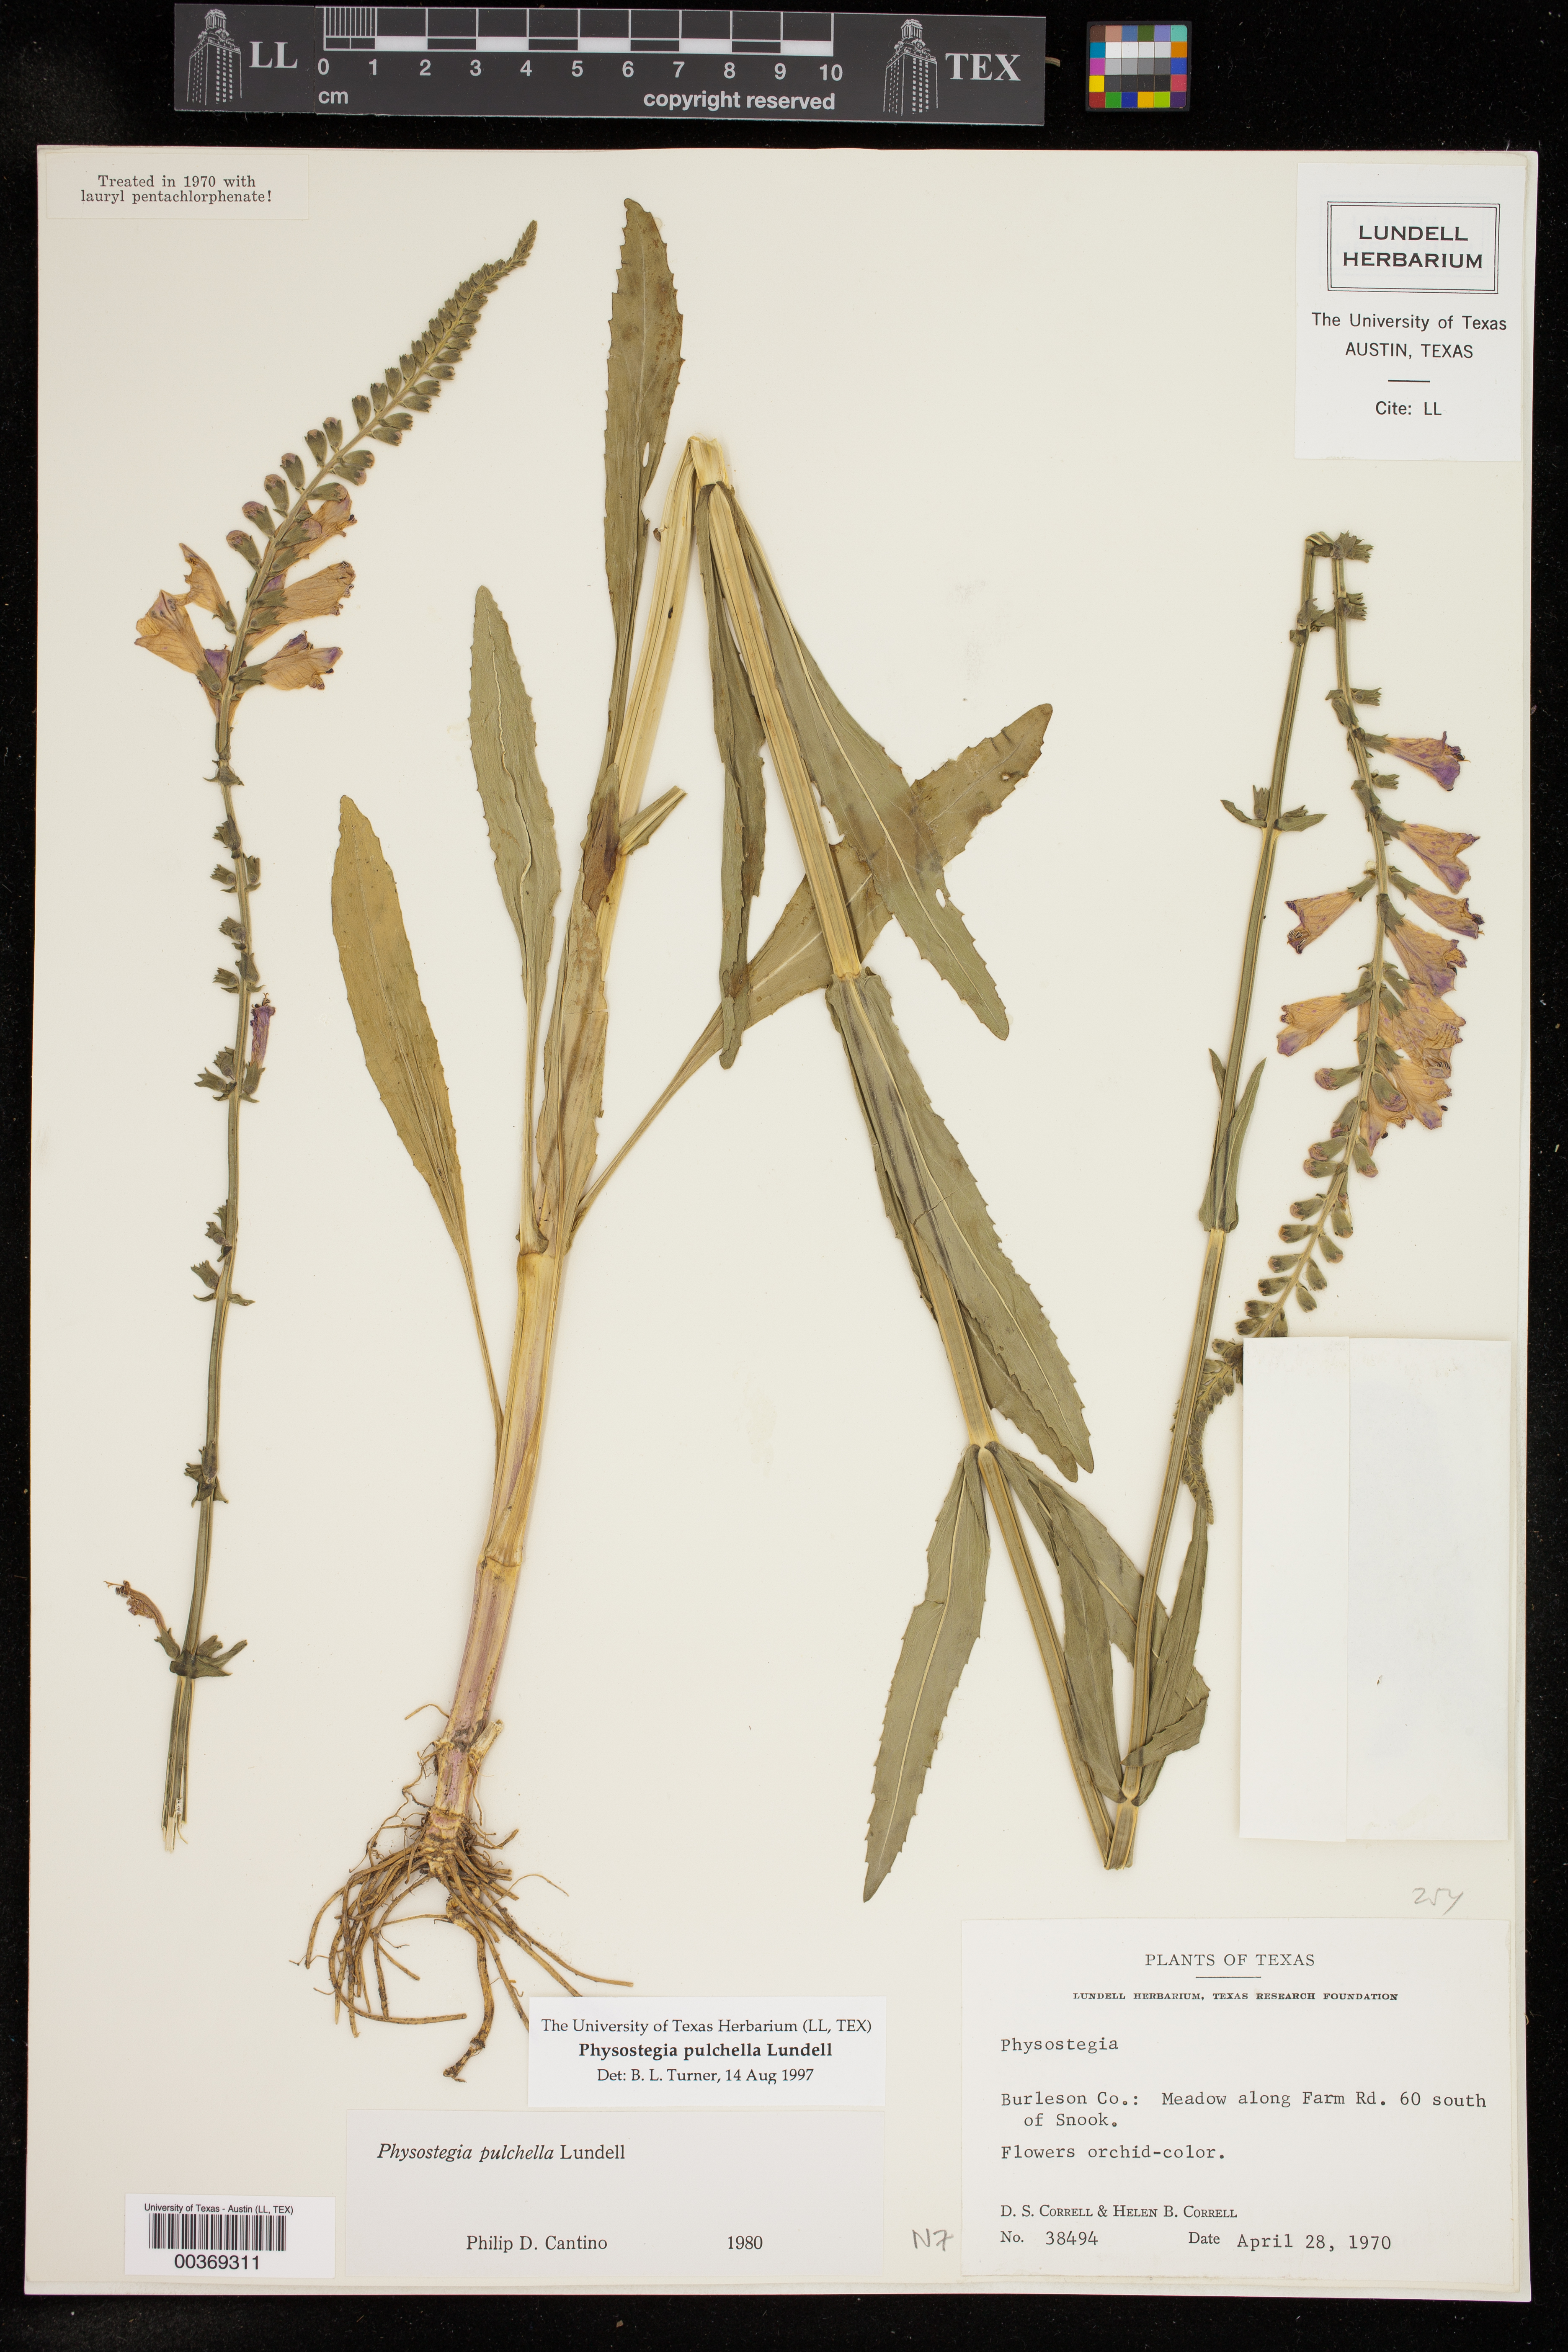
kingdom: Plantae
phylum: Tracheophyta
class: Magnoliopsida
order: Lamiales
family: Lamiaceae
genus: Physostegia
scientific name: Physostegia virginiana
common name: Obedient-plant
